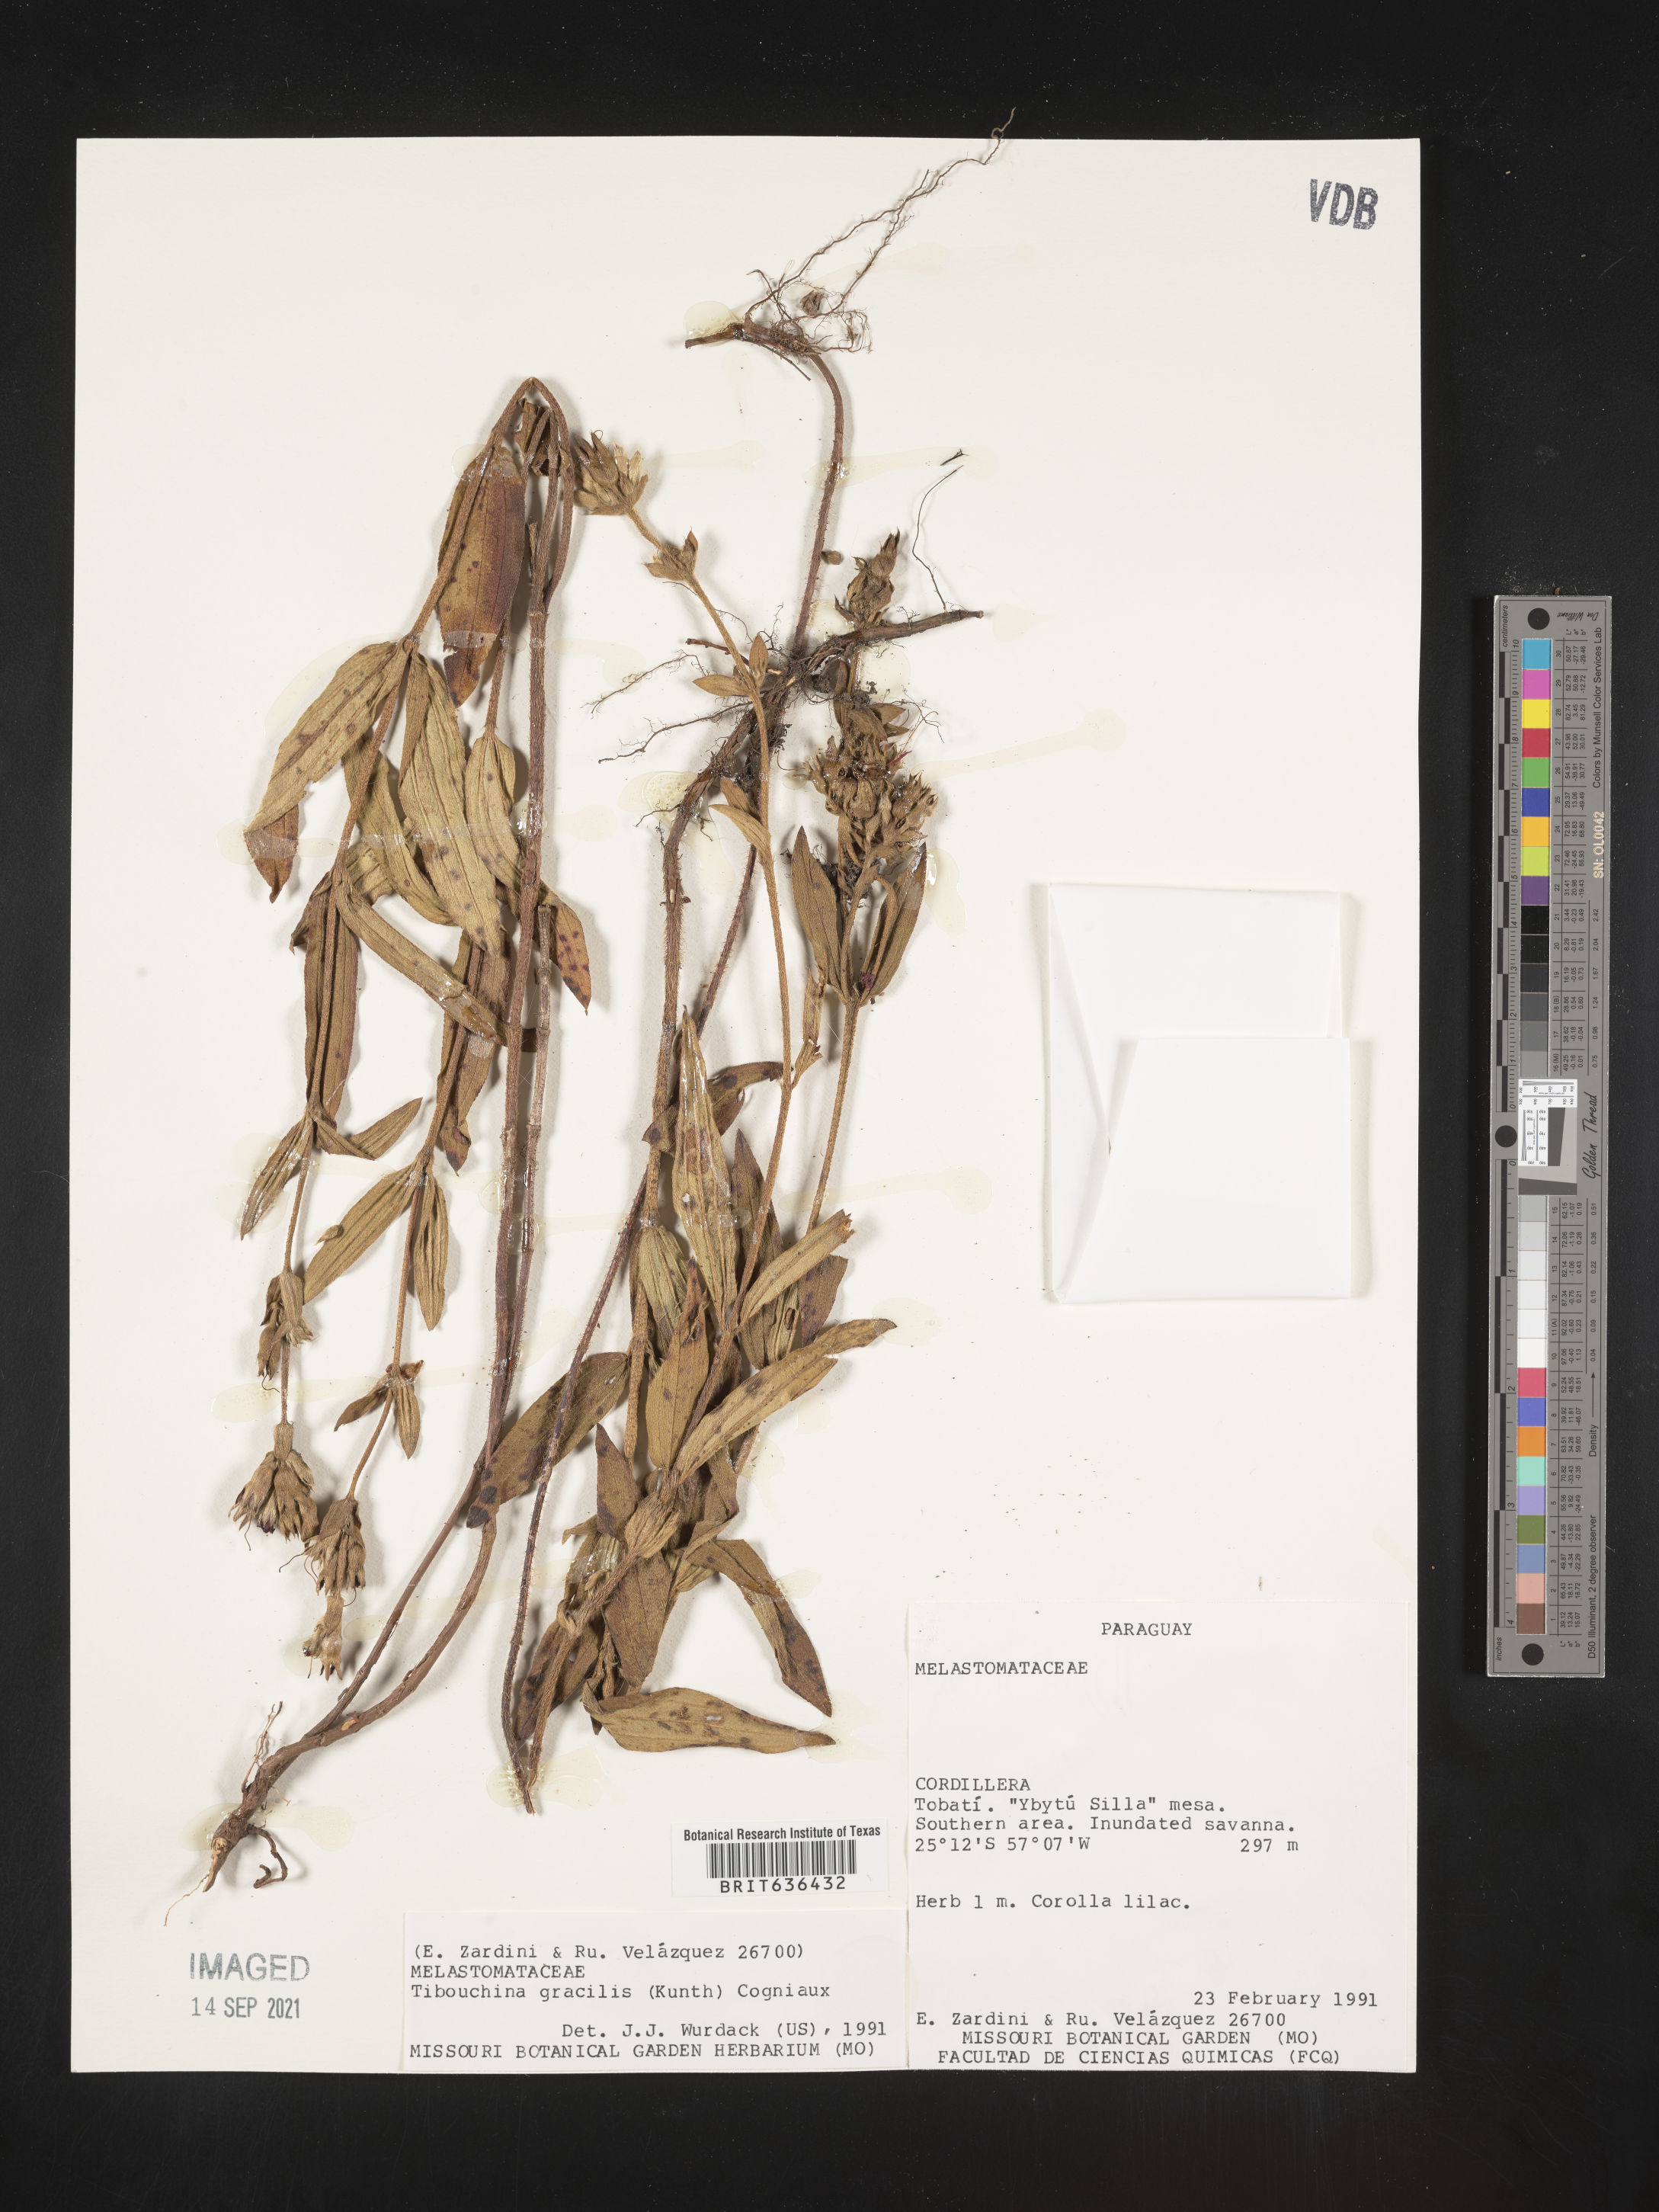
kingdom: Plantae
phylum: Tracheophyta
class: Magnoliopsida
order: Myrtales
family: Melastomataceae
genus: Tibouchina
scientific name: Tibouchina
